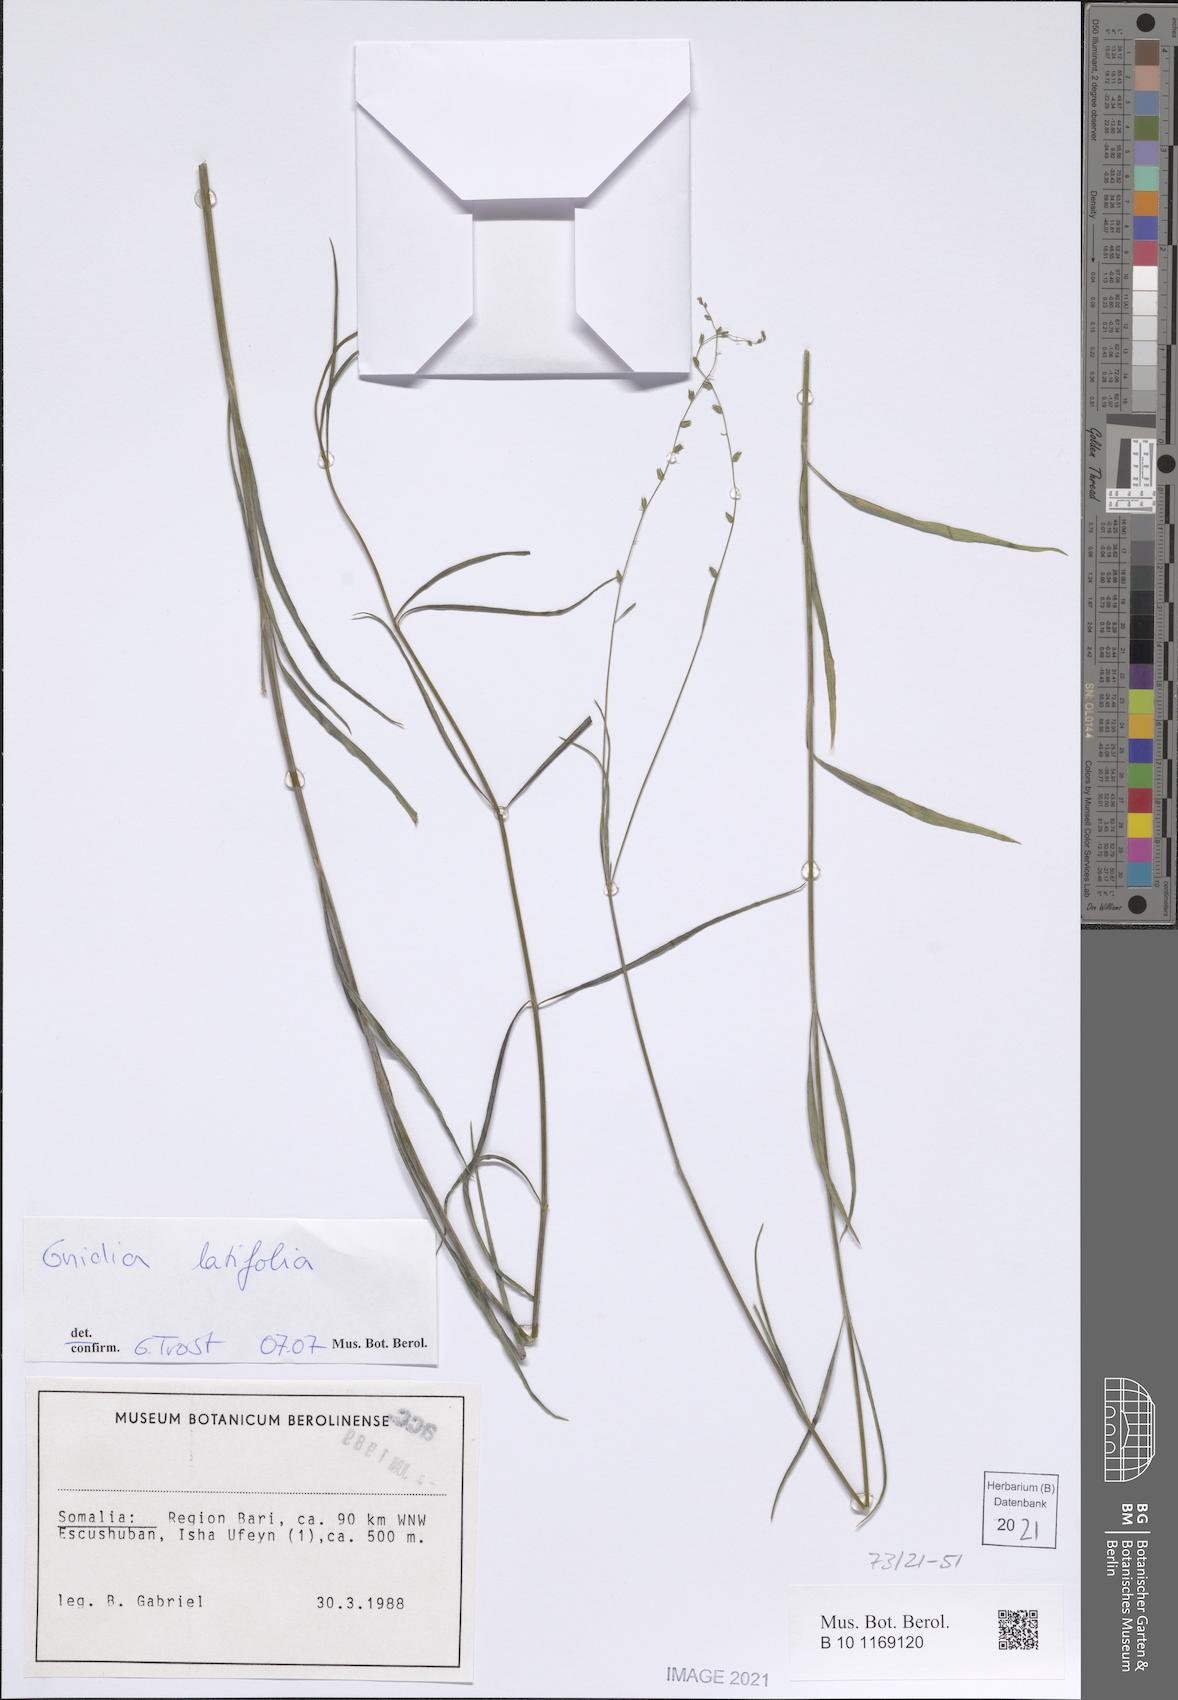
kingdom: Plantae
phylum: Tracheophyta
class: Magnoliopsida
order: Malvales
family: Thymelaeaceae
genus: Gnidia
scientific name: Gnidia latifolia
